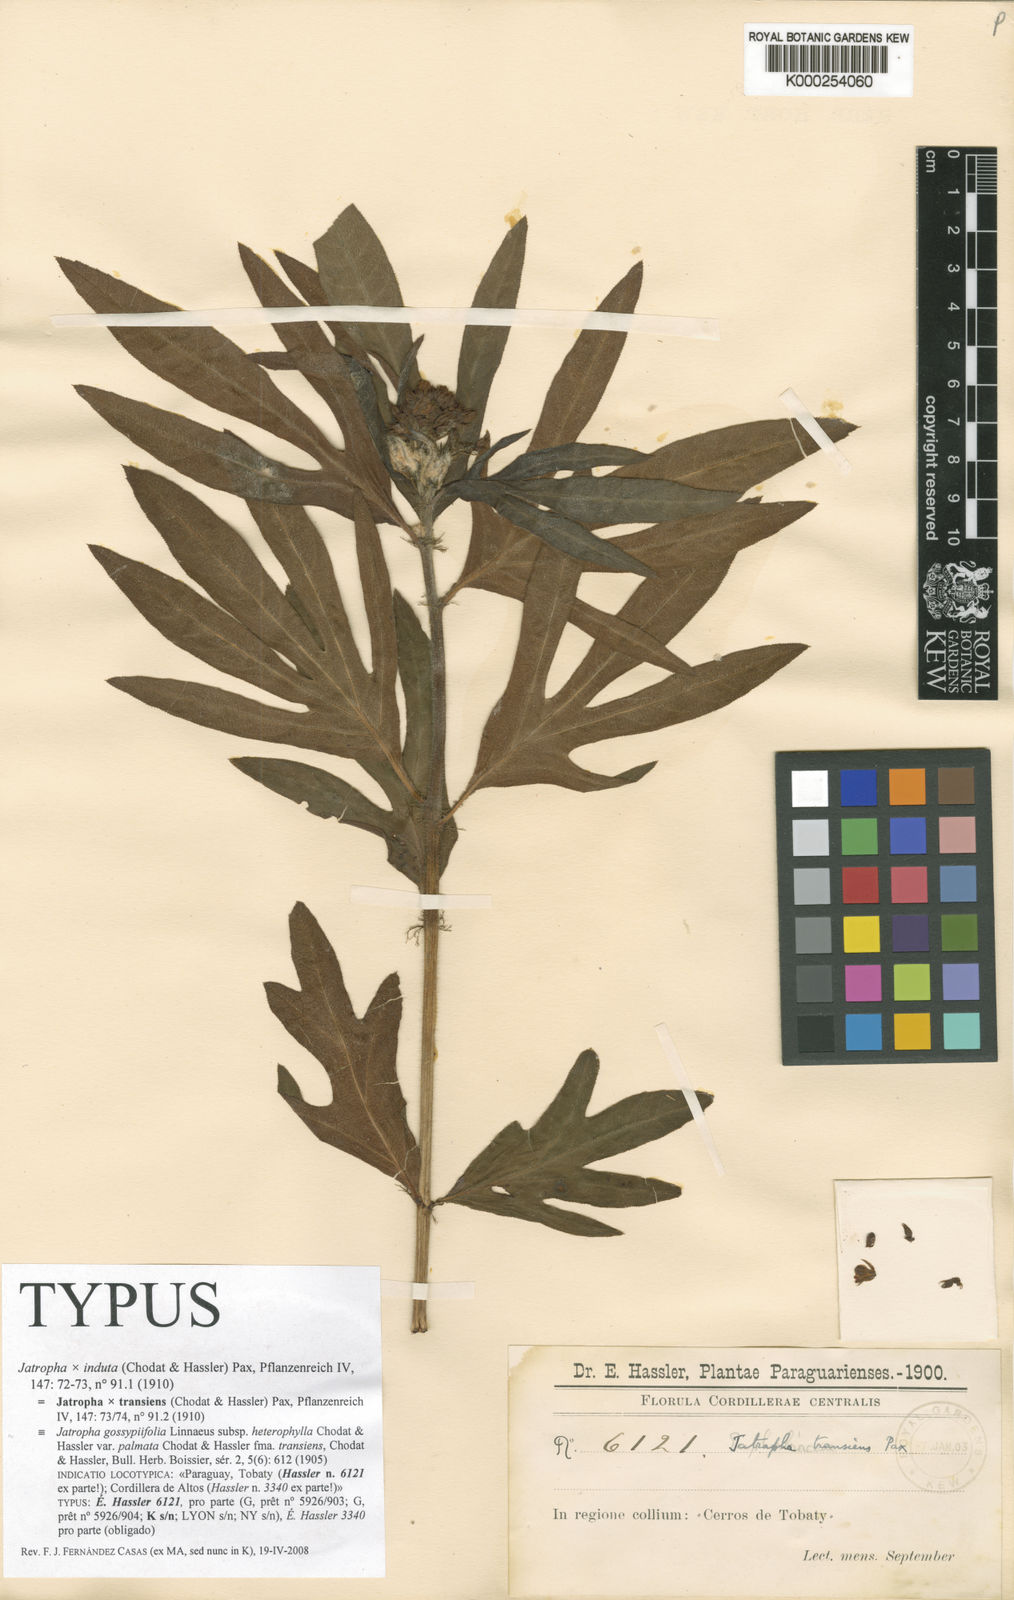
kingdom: Plantae
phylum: Tracheophyta
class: Magnoliopsida
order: Malpighiales
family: Euphorbiaceae
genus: Jatropha
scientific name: Jatropha dissecta
